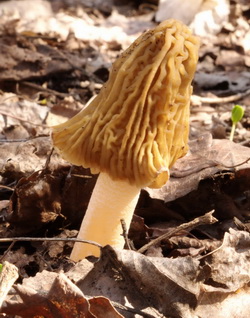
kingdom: Fungi
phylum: Ascomycota
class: Pezizomycetes
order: Pezizales
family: Morchellaceae
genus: Verpa
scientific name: Verpa bohemica
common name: rynket klokkemorkel
